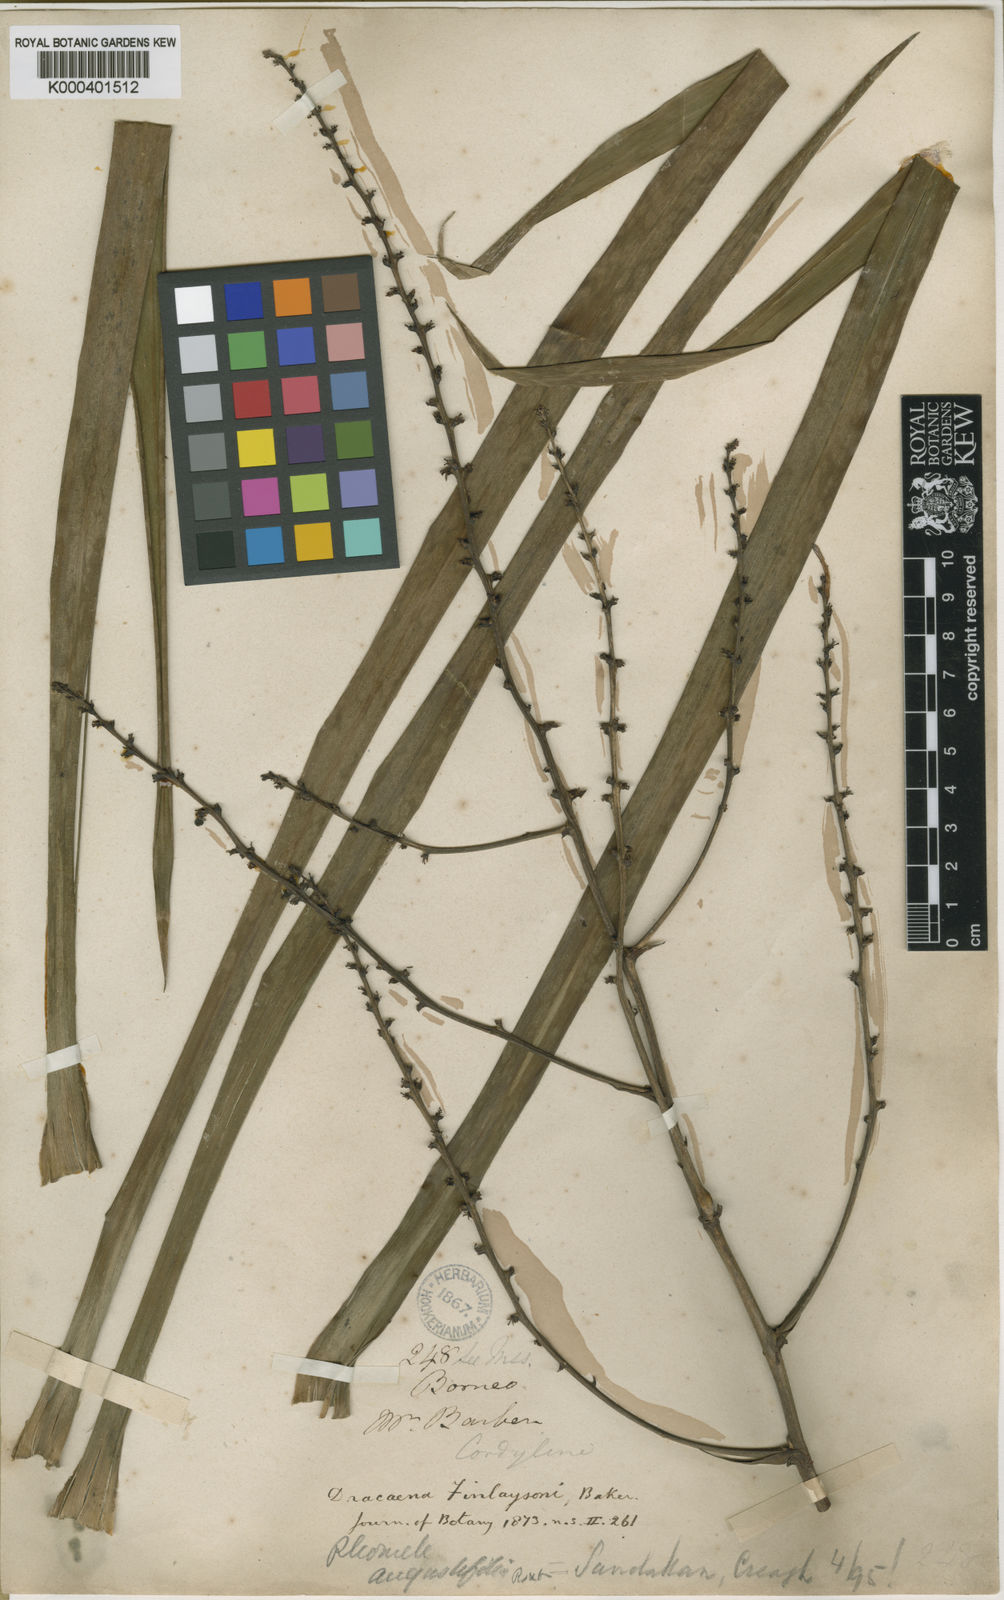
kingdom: Plantae
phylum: Tracheophyta
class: Liliopsida
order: Asparagales
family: Asparagaceae
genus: Dracaena
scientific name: Dracaena finlaysonii
